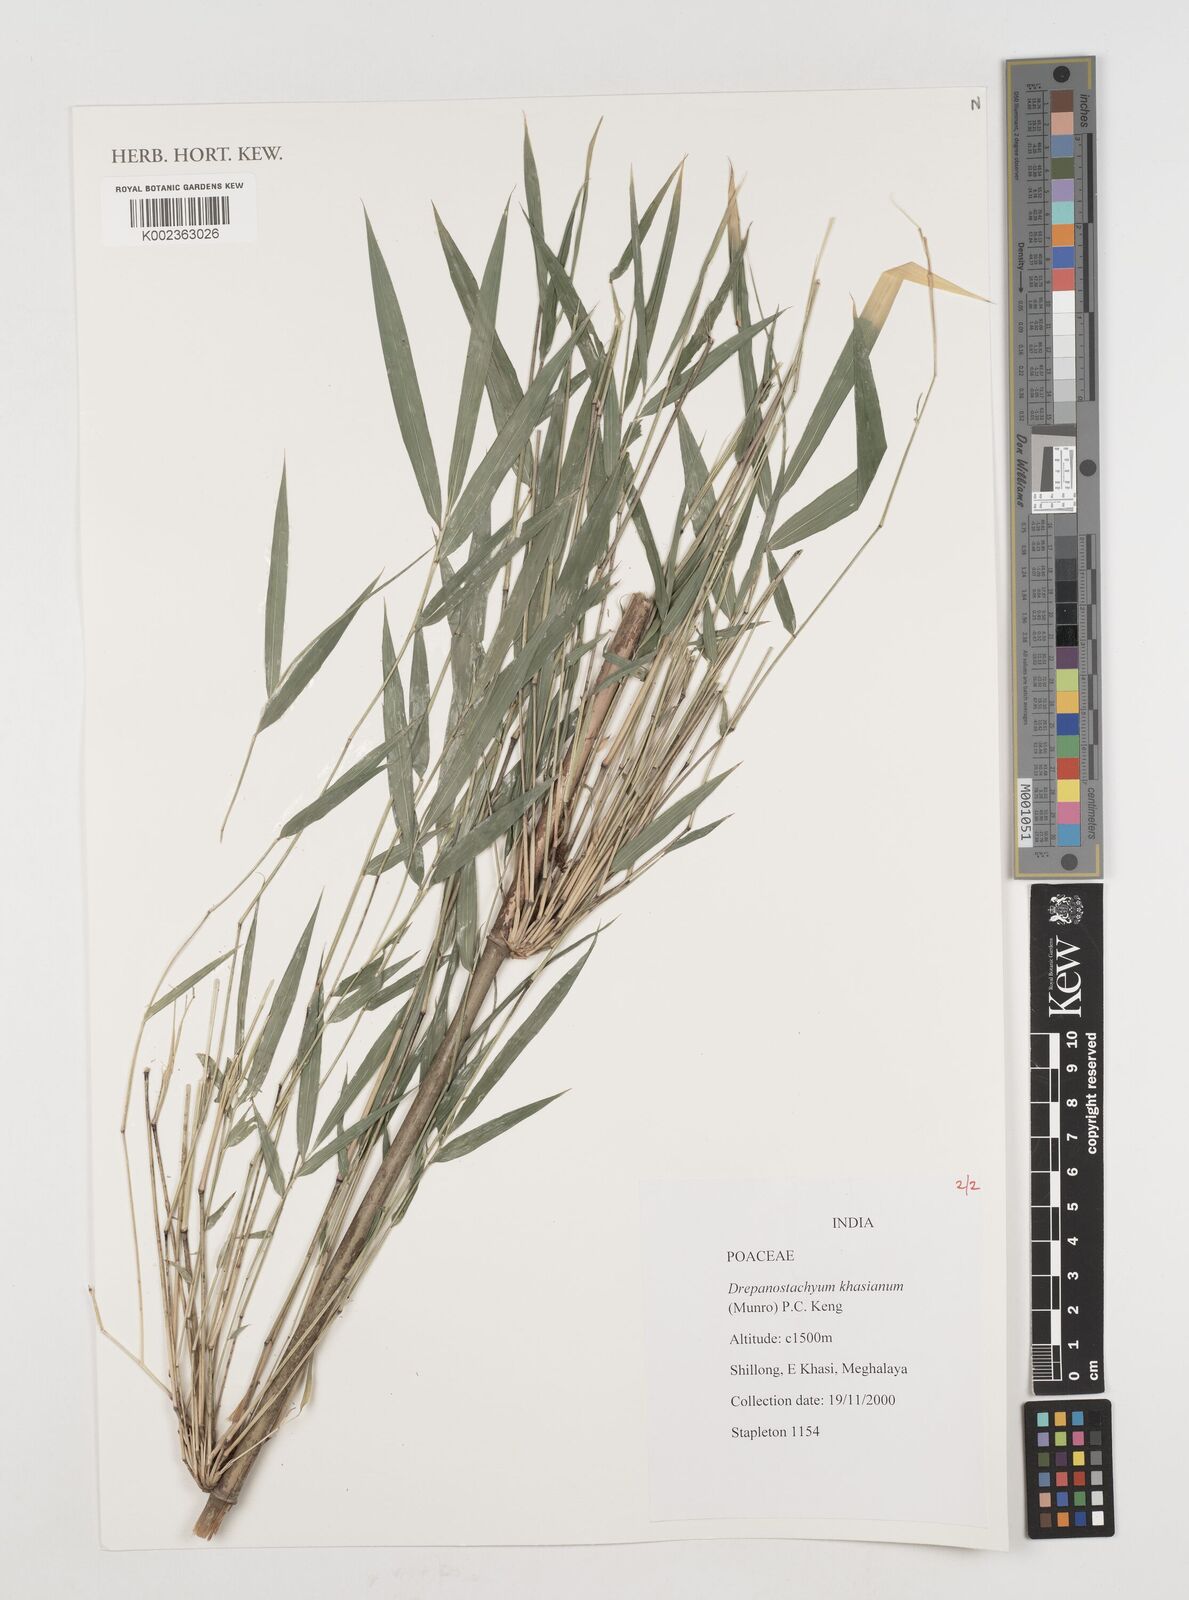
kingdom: Plantae
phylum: Tracheophyta
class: Liliopsida
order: Poales
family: Poaceae
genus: Drepanostachyum
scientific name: Drepanostachyum khasianum
